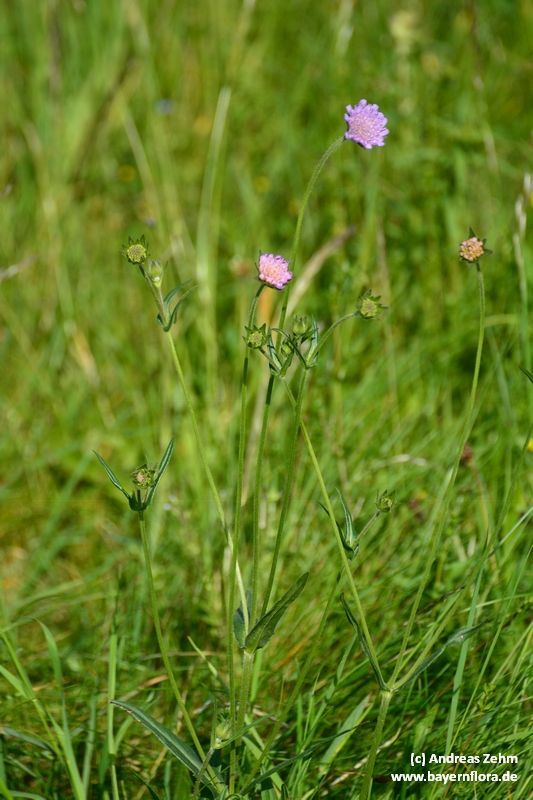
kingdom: Plantae
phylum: Tracheophyta
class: Magnoliopsida
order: Dipsacales
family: Caprifoliaceae
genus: Knautia
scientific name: Knautia arvensis
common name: Field scabiosa
